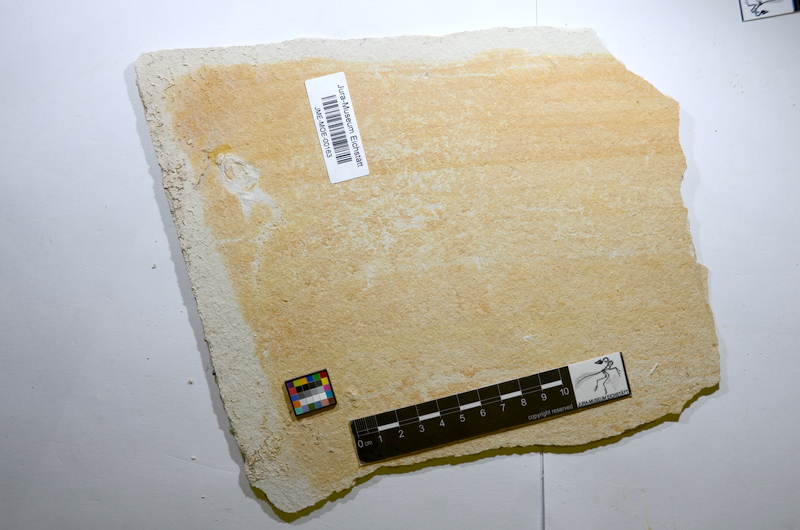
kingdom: Animalia
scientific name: Animalia
